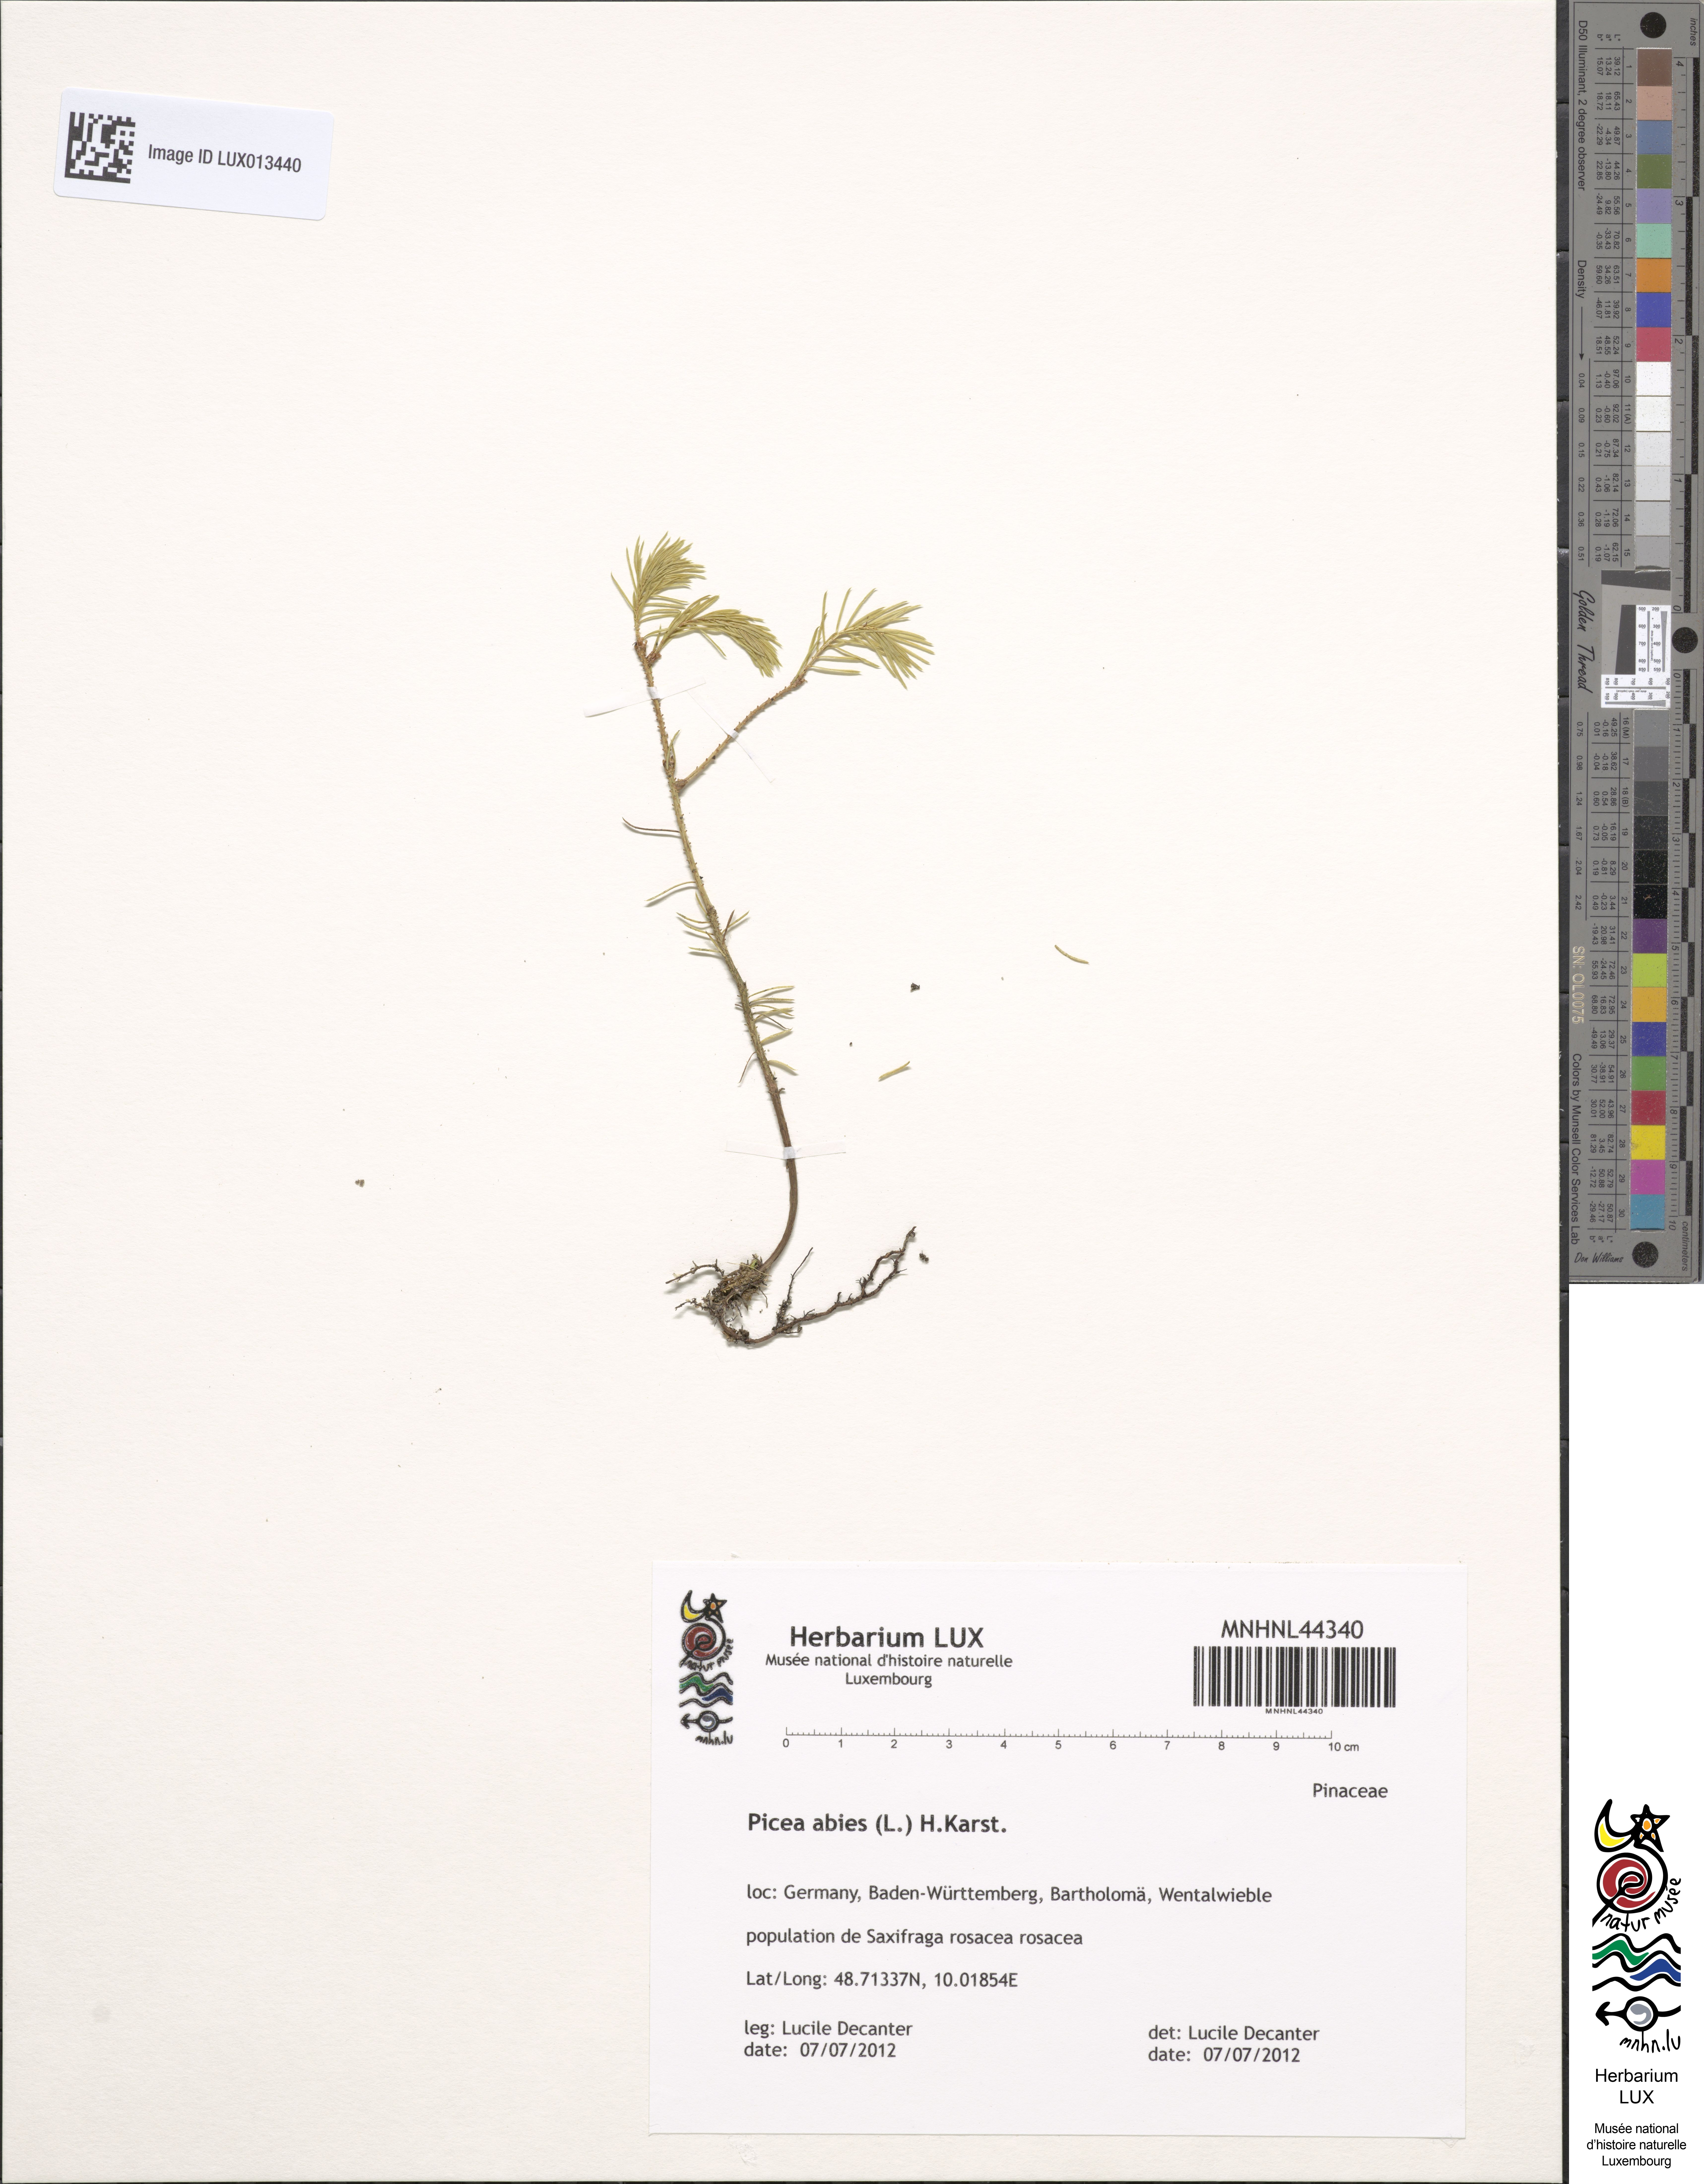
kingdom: Plantae
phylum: Tracheophyta
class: Pinopsida
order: Pinales
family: Pinaceae
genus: Picea
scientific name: Picea abies
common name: Norway spruce
